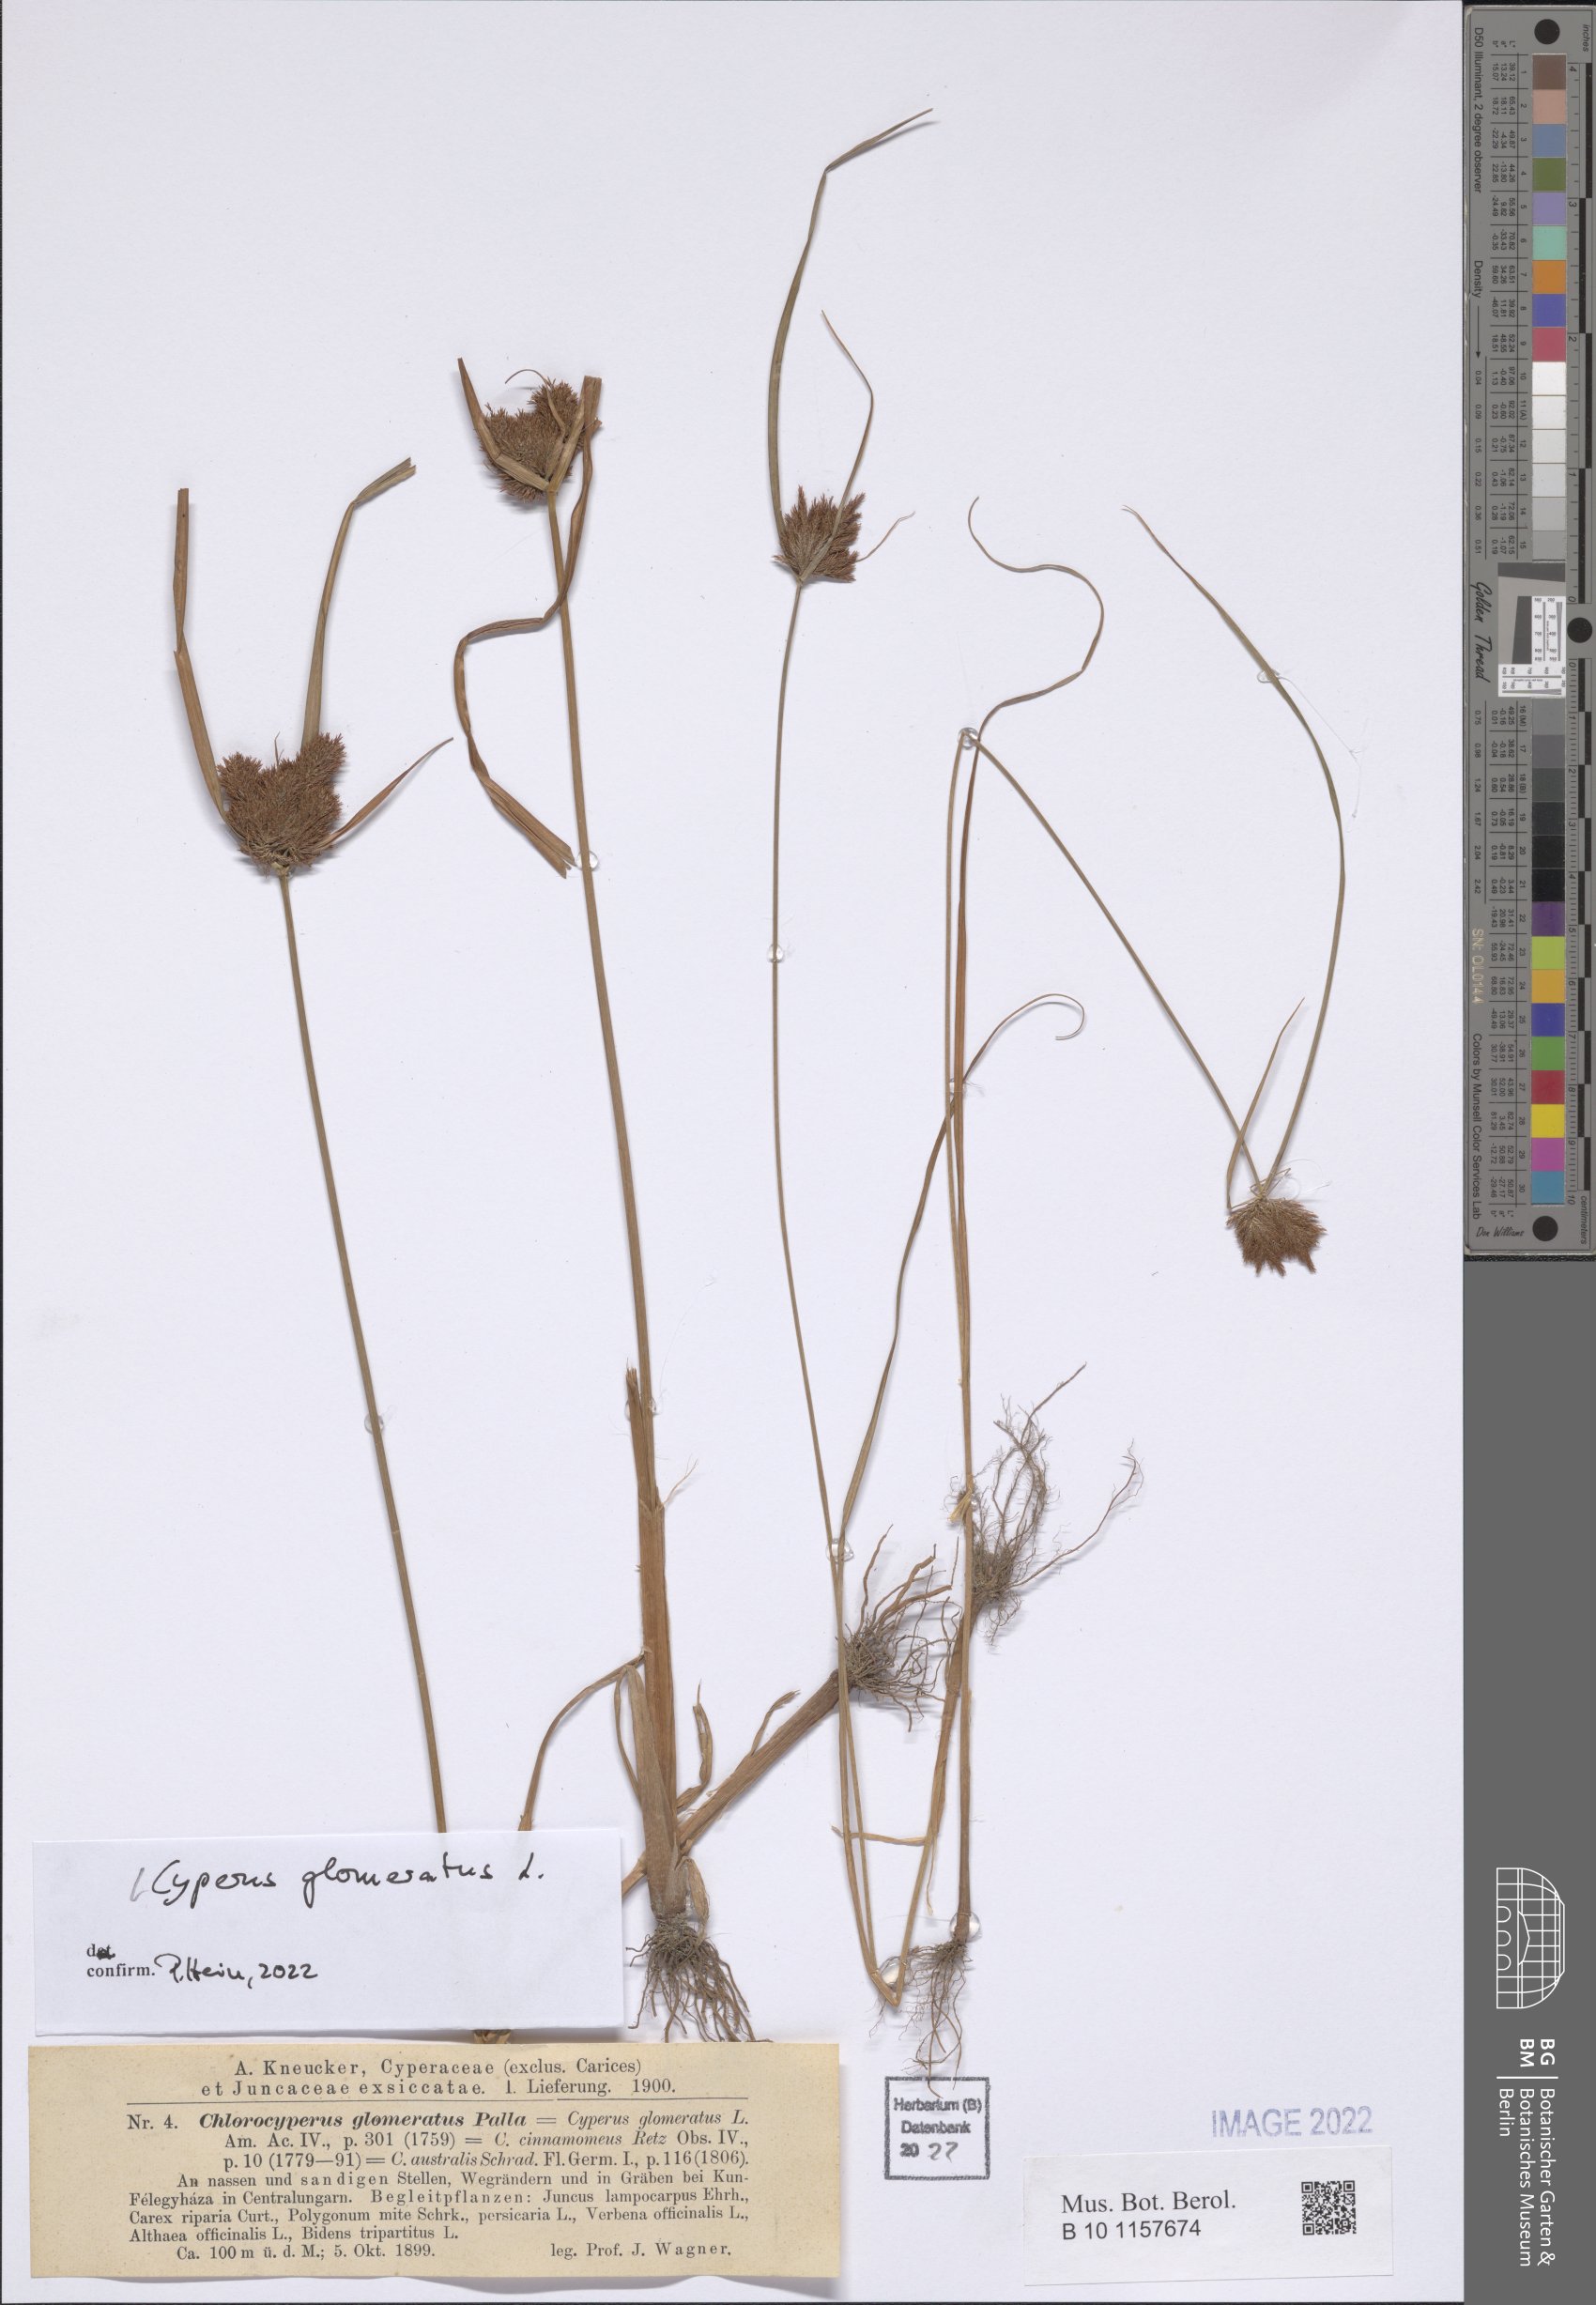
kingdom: Plantae
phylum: Tracheophyta
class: Liliopsida
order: Poales
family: Cyperaceae
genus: Cyperus
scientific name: Cyperus glomeratus
